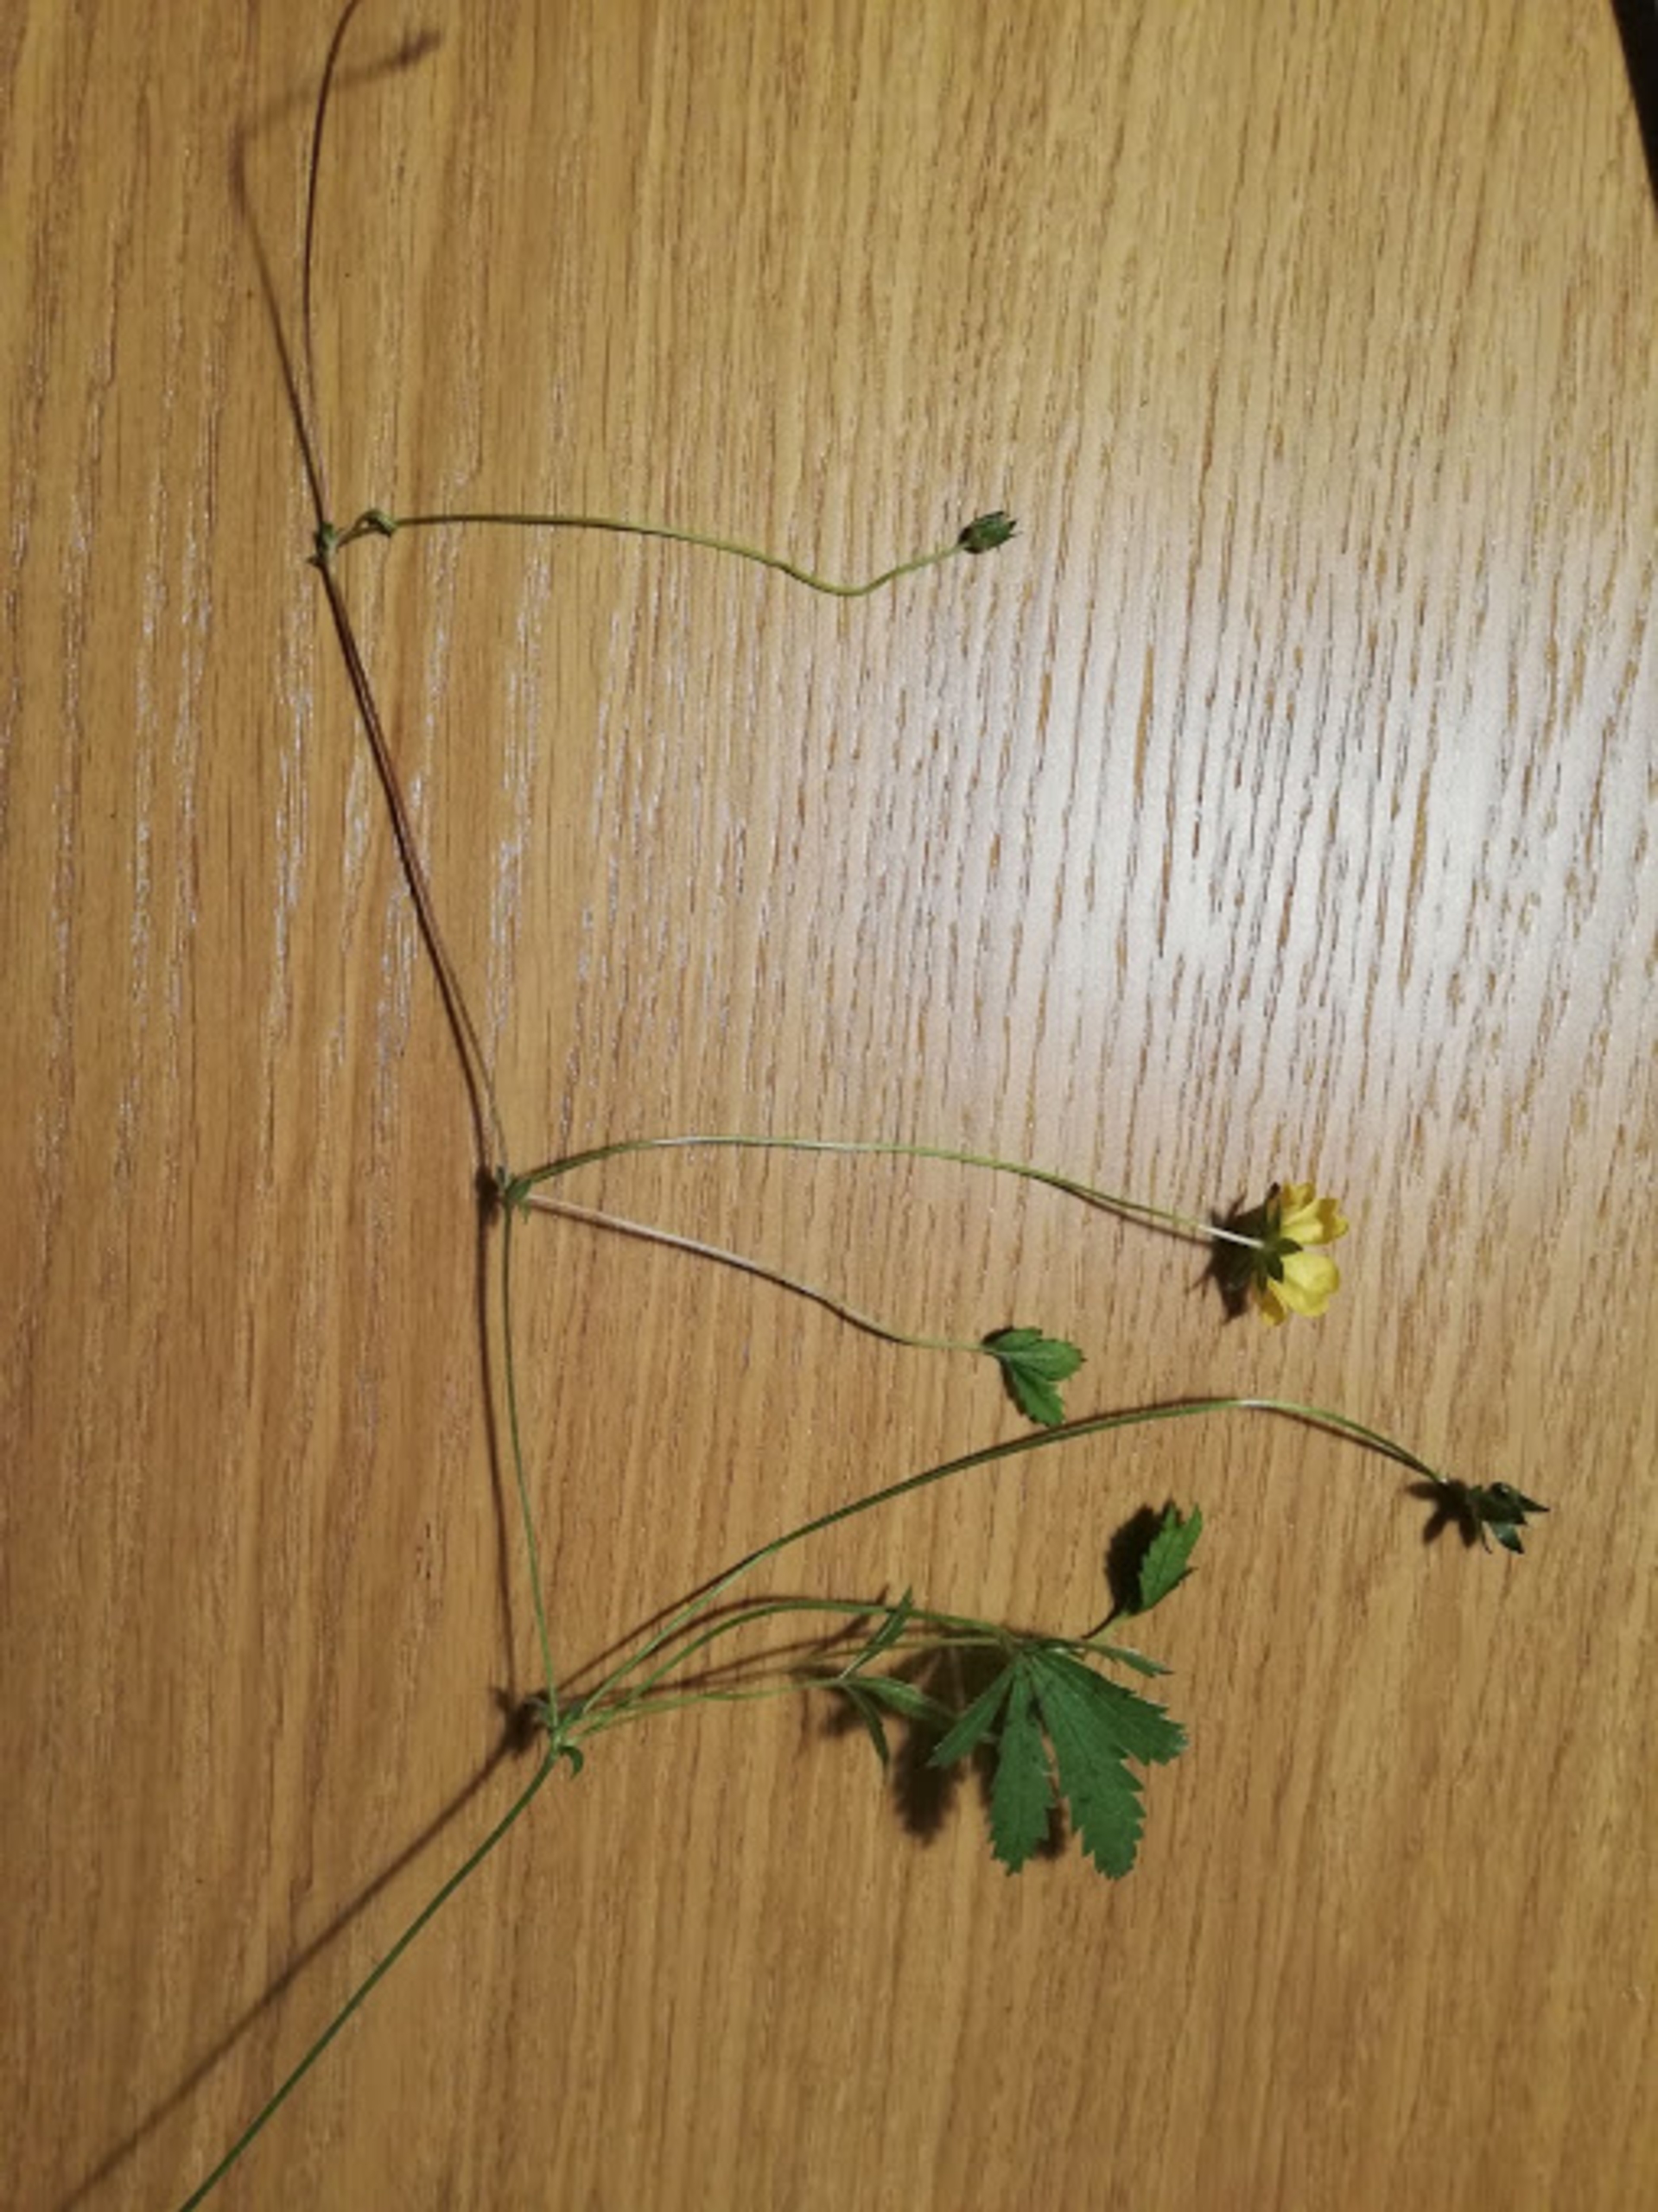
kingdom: Plantae
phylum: Tracheophyta
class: Magnoliopsida
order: Rosales
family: Rosaceae
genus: Potentilla
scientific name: Potentilla reptans
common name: Krybende potentil
